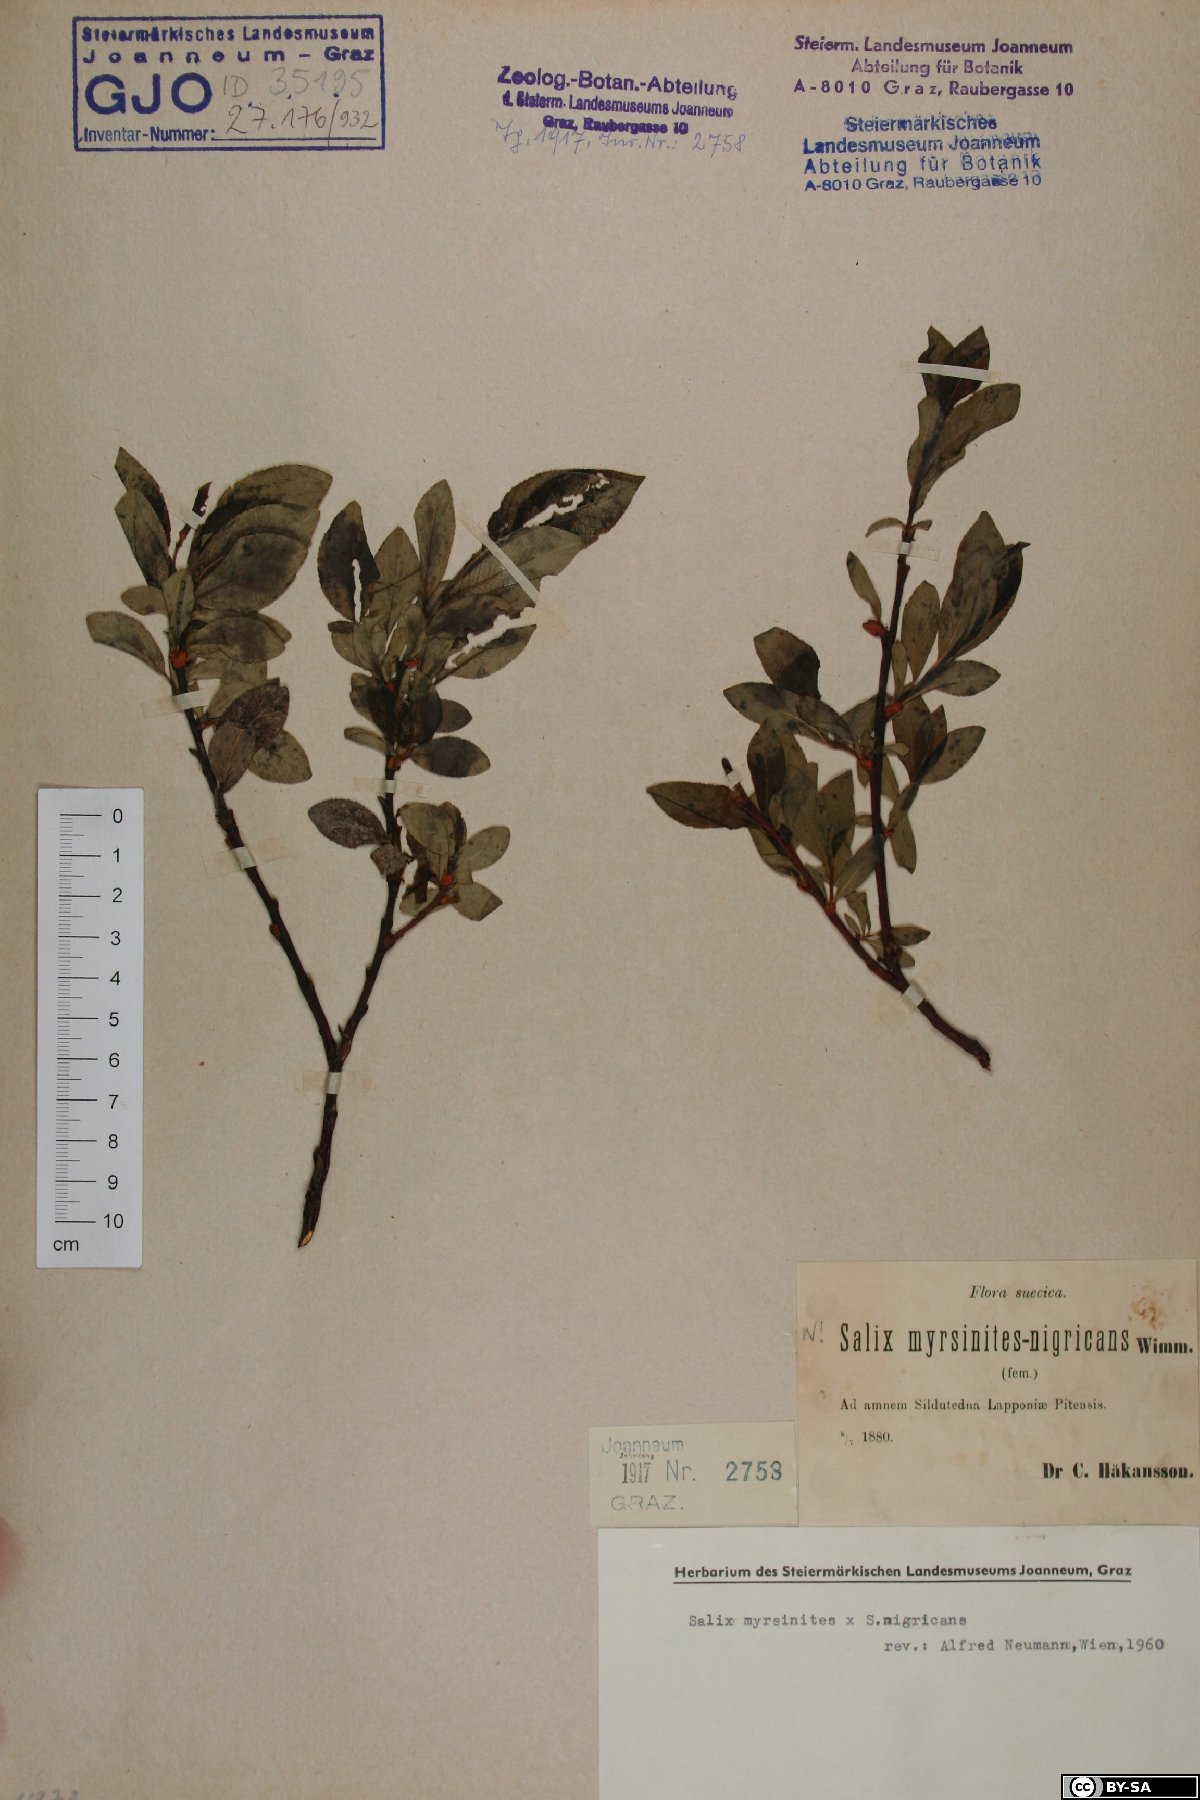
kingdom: Plantae
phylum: Tracheophyta
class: Magnoliopsida
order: Malpighiales
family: Salicaceae
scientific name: Salicaceae
